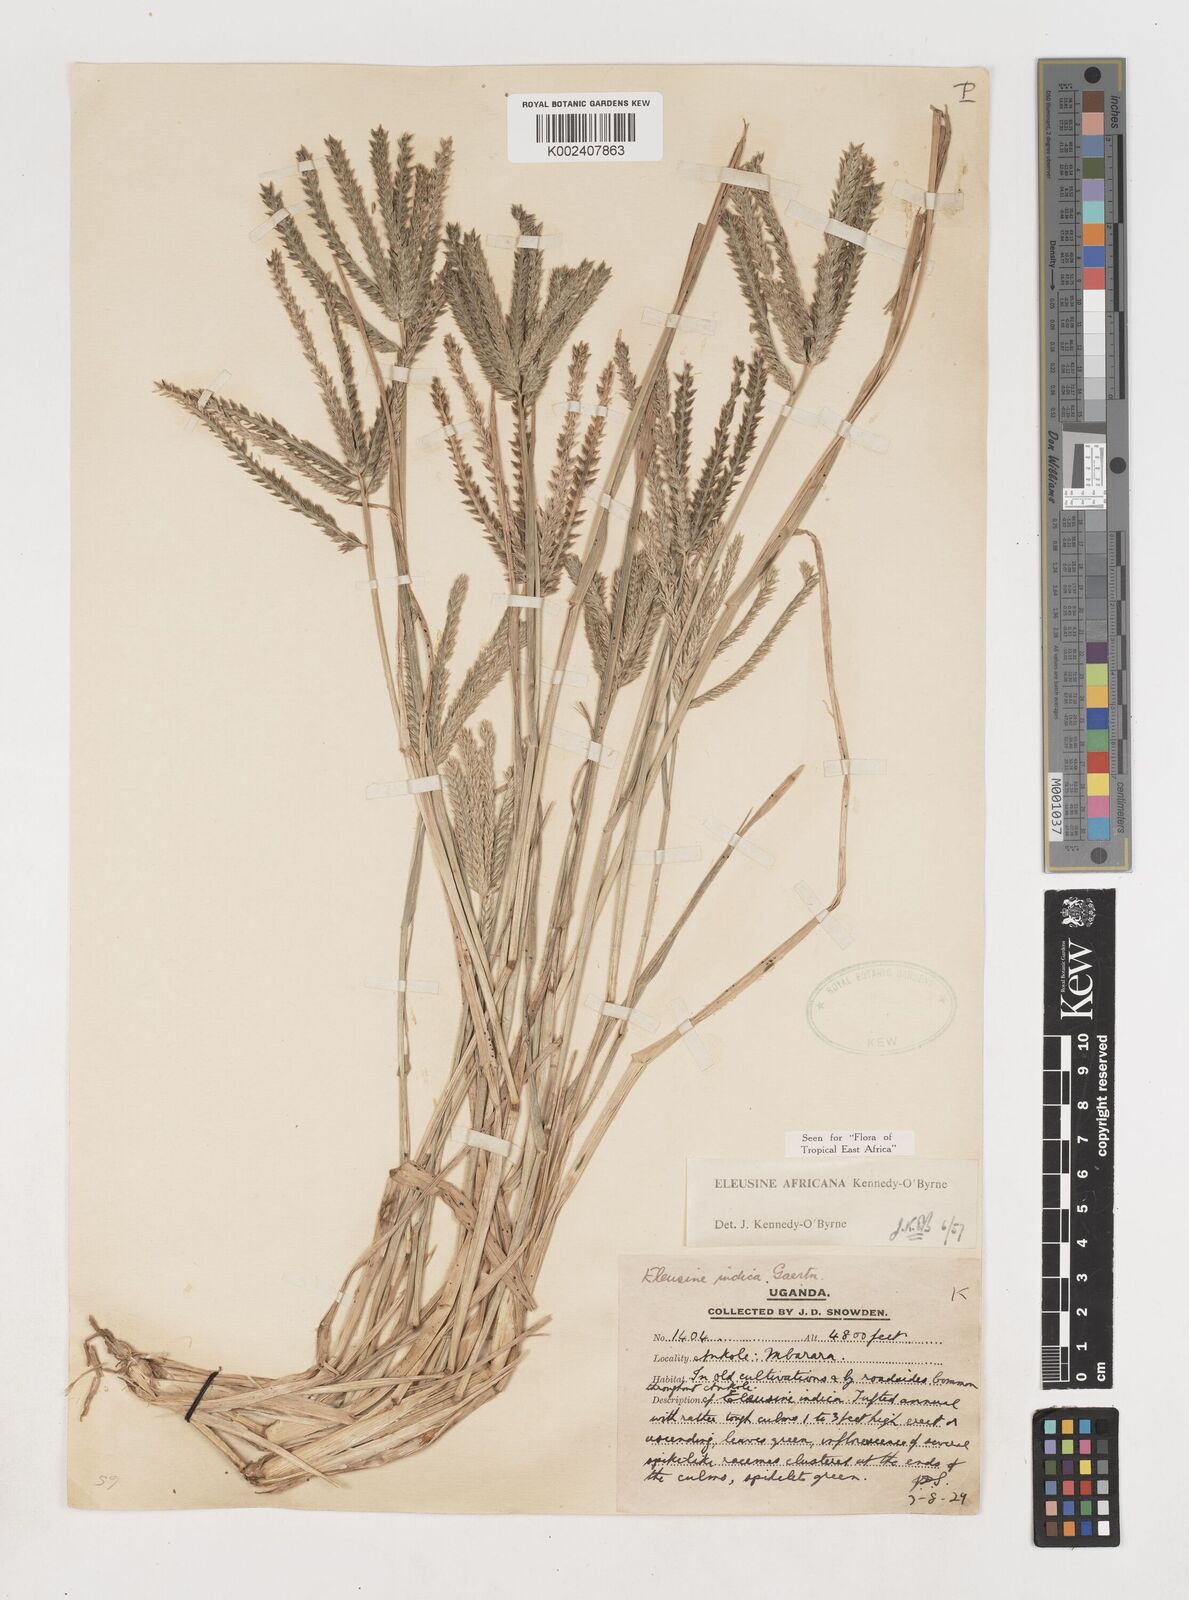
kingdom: Plantae
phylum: Tracheophyta
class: Liliopsida
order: Poales
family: Poaceae
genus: Eleusine
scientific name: Eleusine africana
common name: Wild african finger millet
